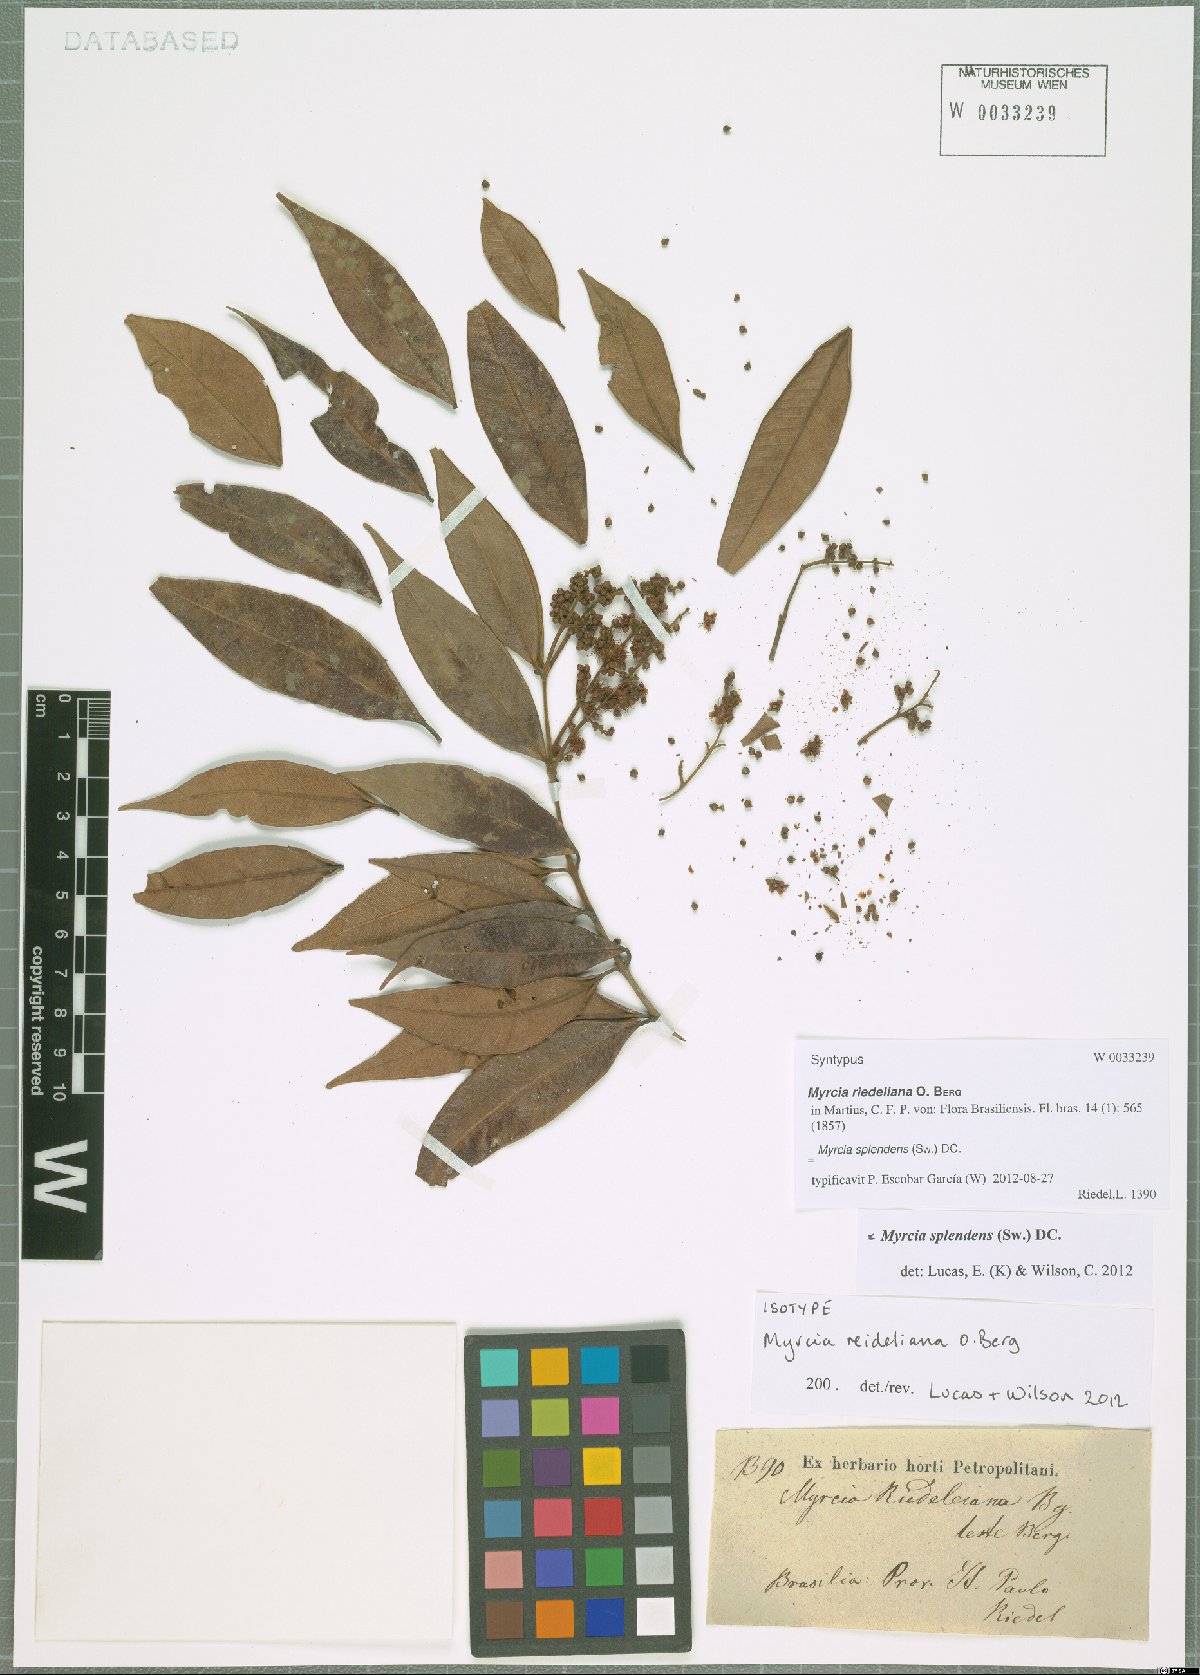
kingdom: Plantae
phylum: Tracheophyta
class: Magnoliopsida
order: Myrtales
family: Myrtaceae
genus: Myrcia
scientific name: Myrcia splendens
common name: Surinam cherry
